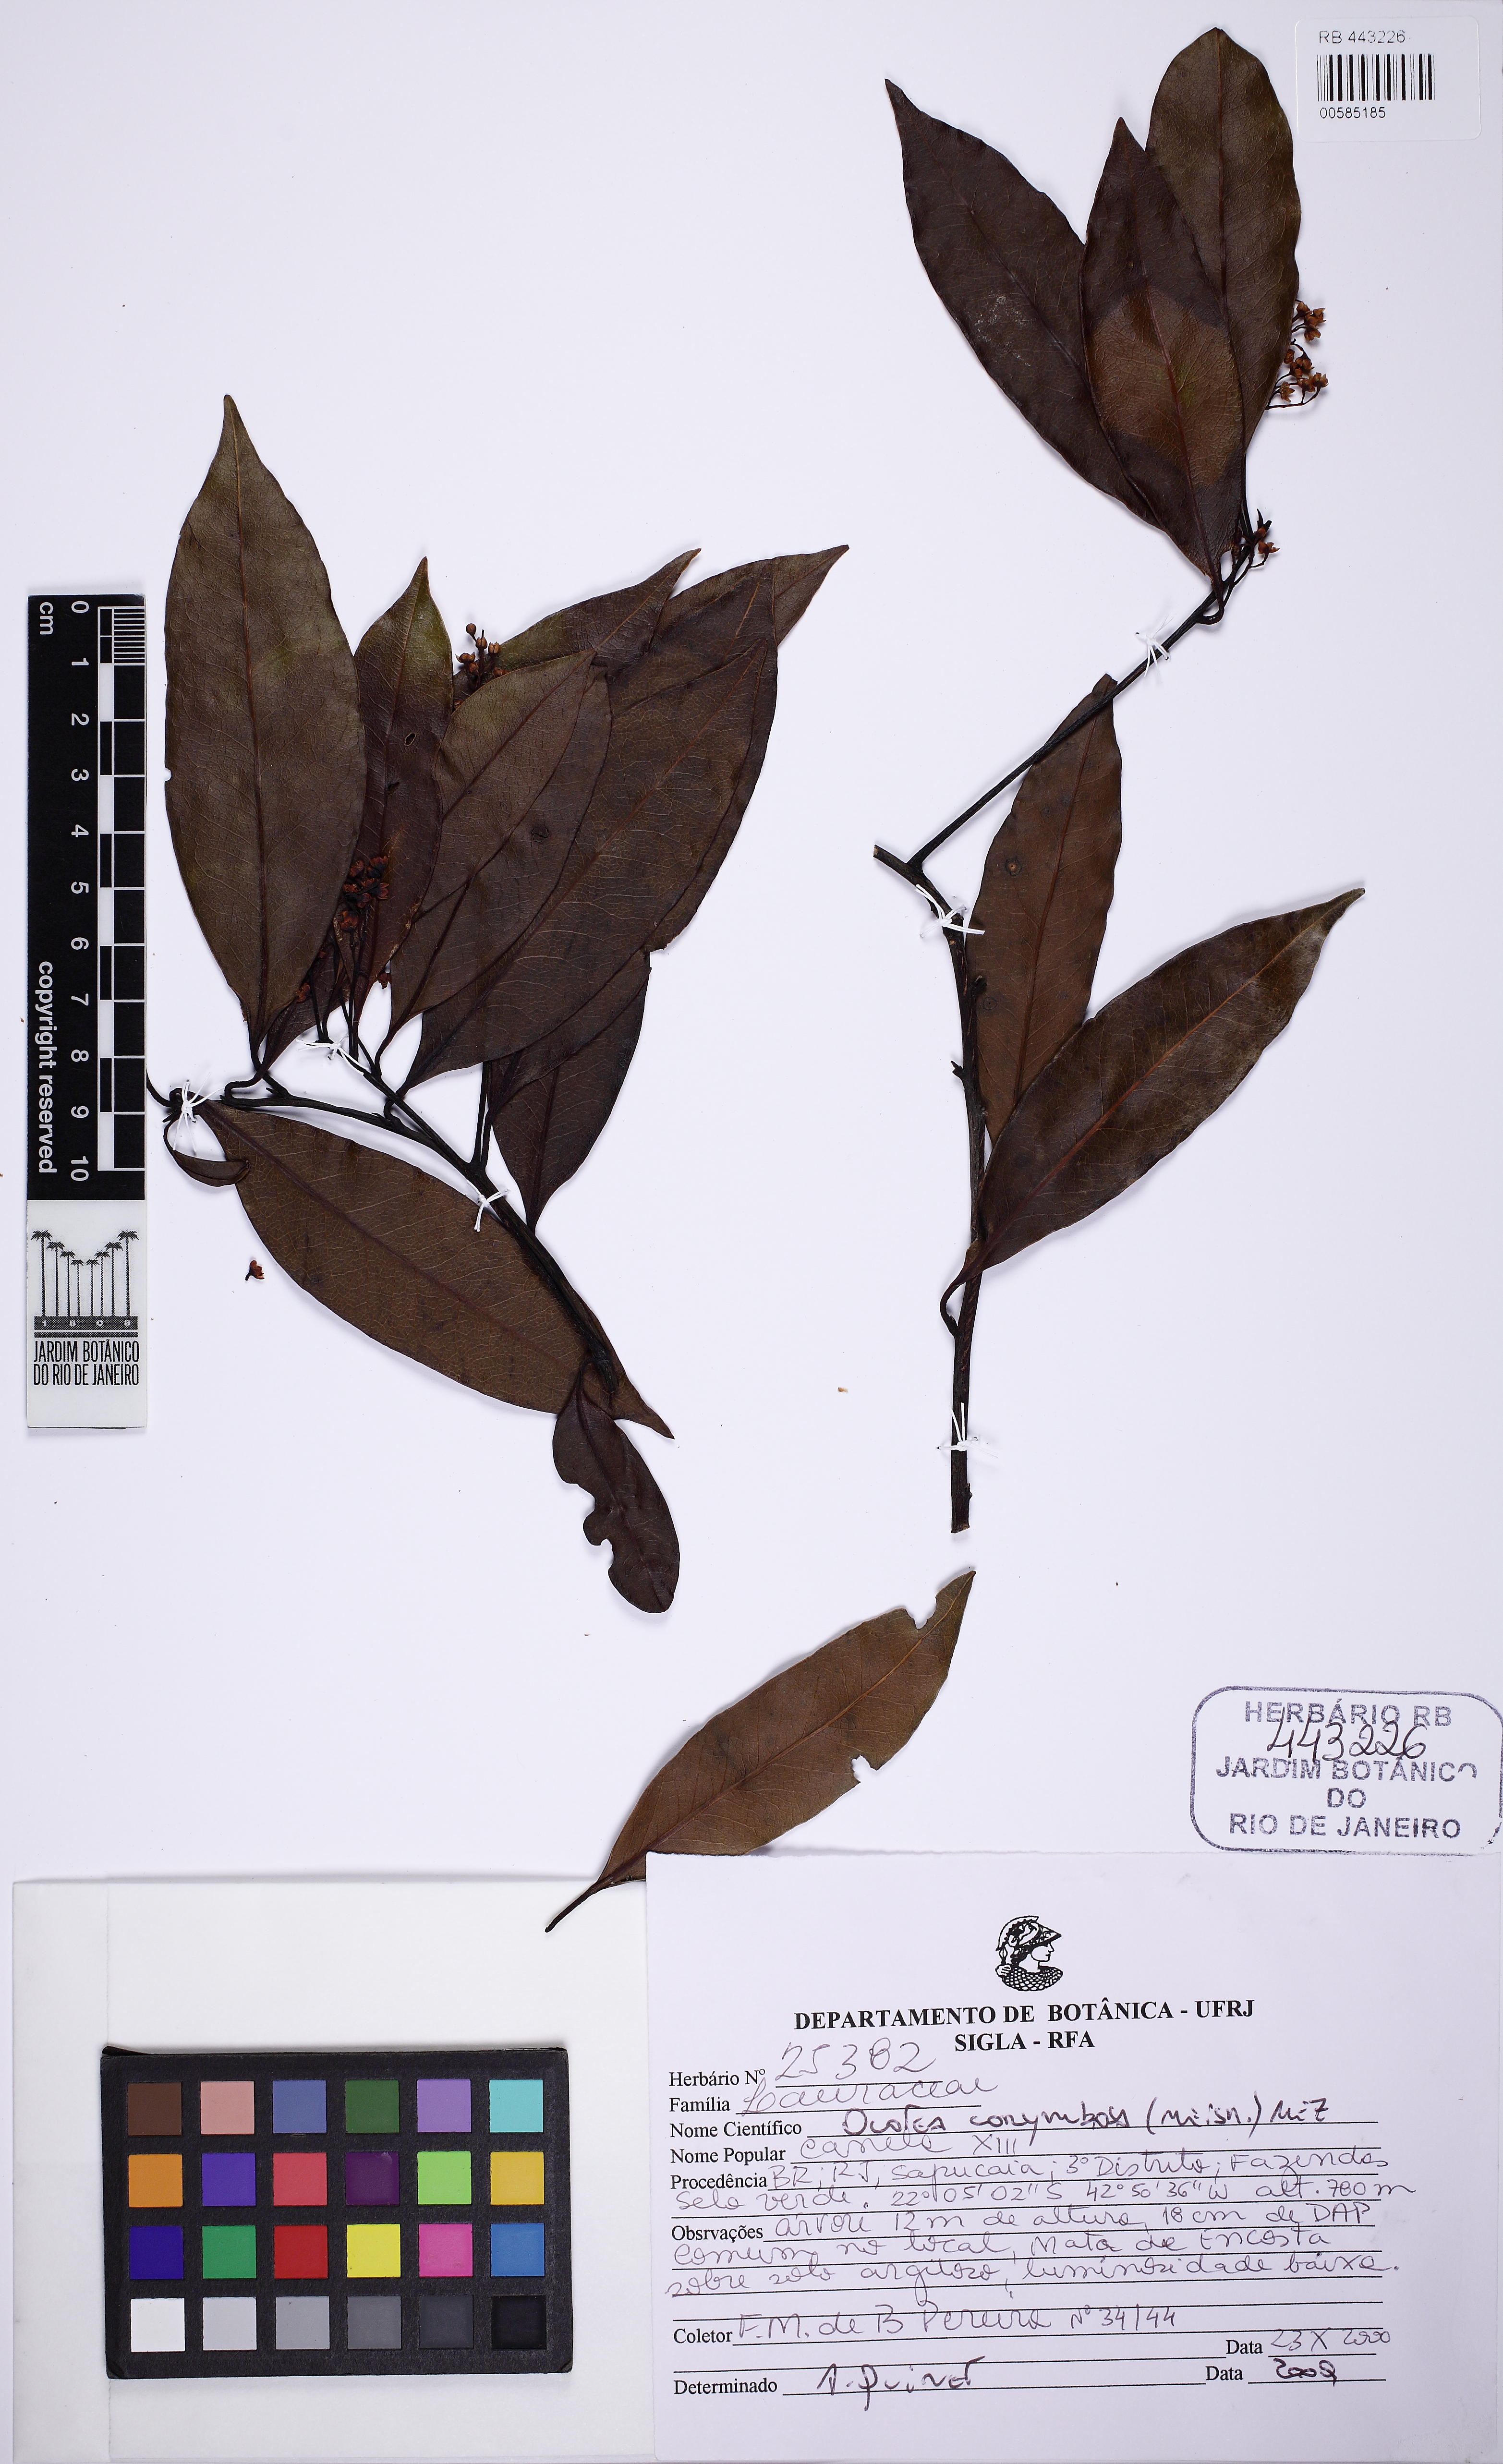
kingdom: Plantae
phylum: Tracheophyta
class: Magnoliopsida
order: Laurales
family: Lauraceae
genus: Mespilodaphne
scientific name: Mespilodaphne corymbosa
